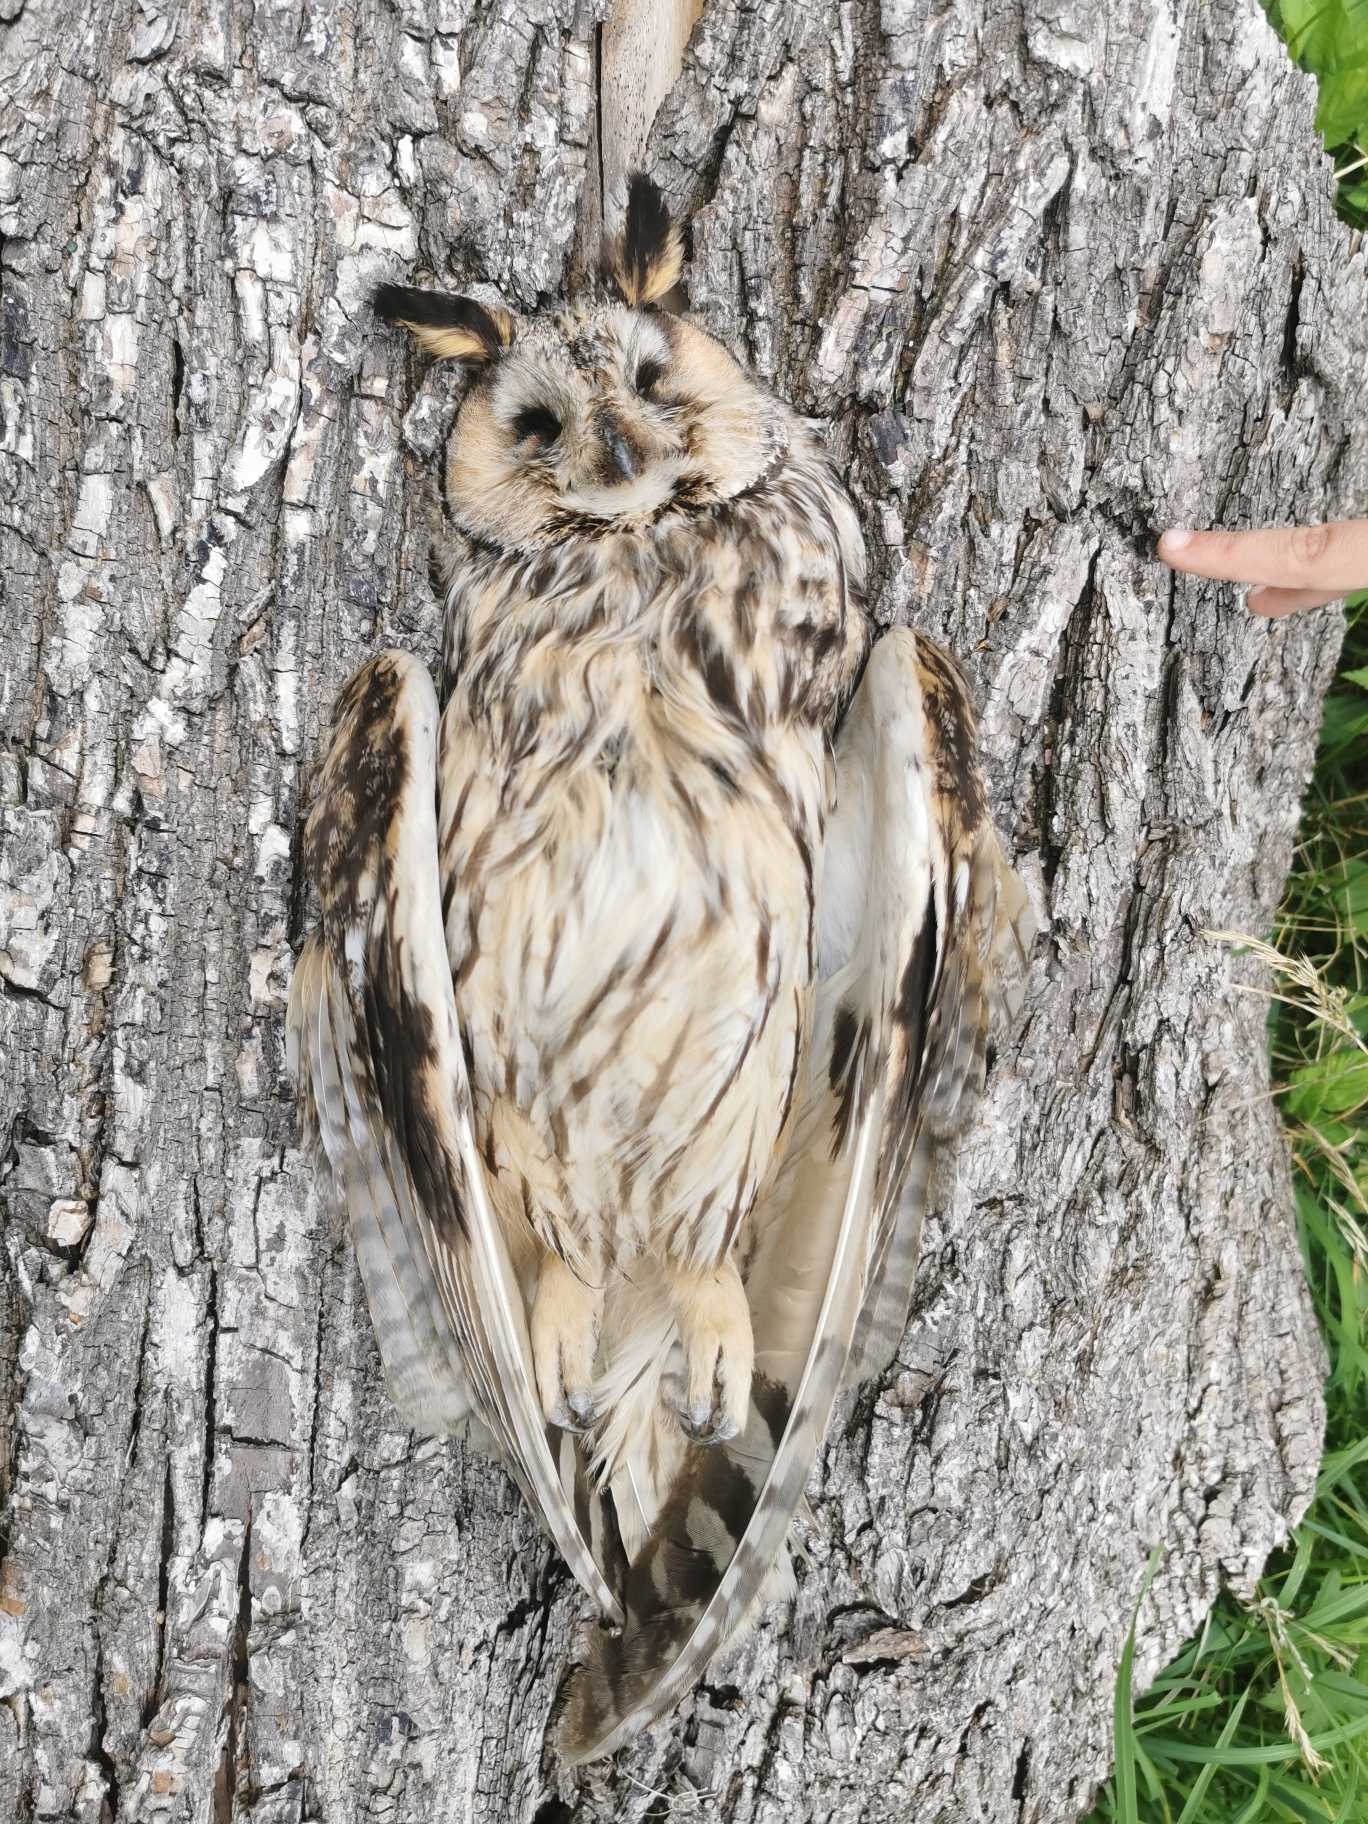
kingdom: Animalia
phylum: Chordata
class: Aves
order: Strigiformes
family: Strigidae
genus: Asio
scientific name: Asio otus
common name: Skovhornugle
